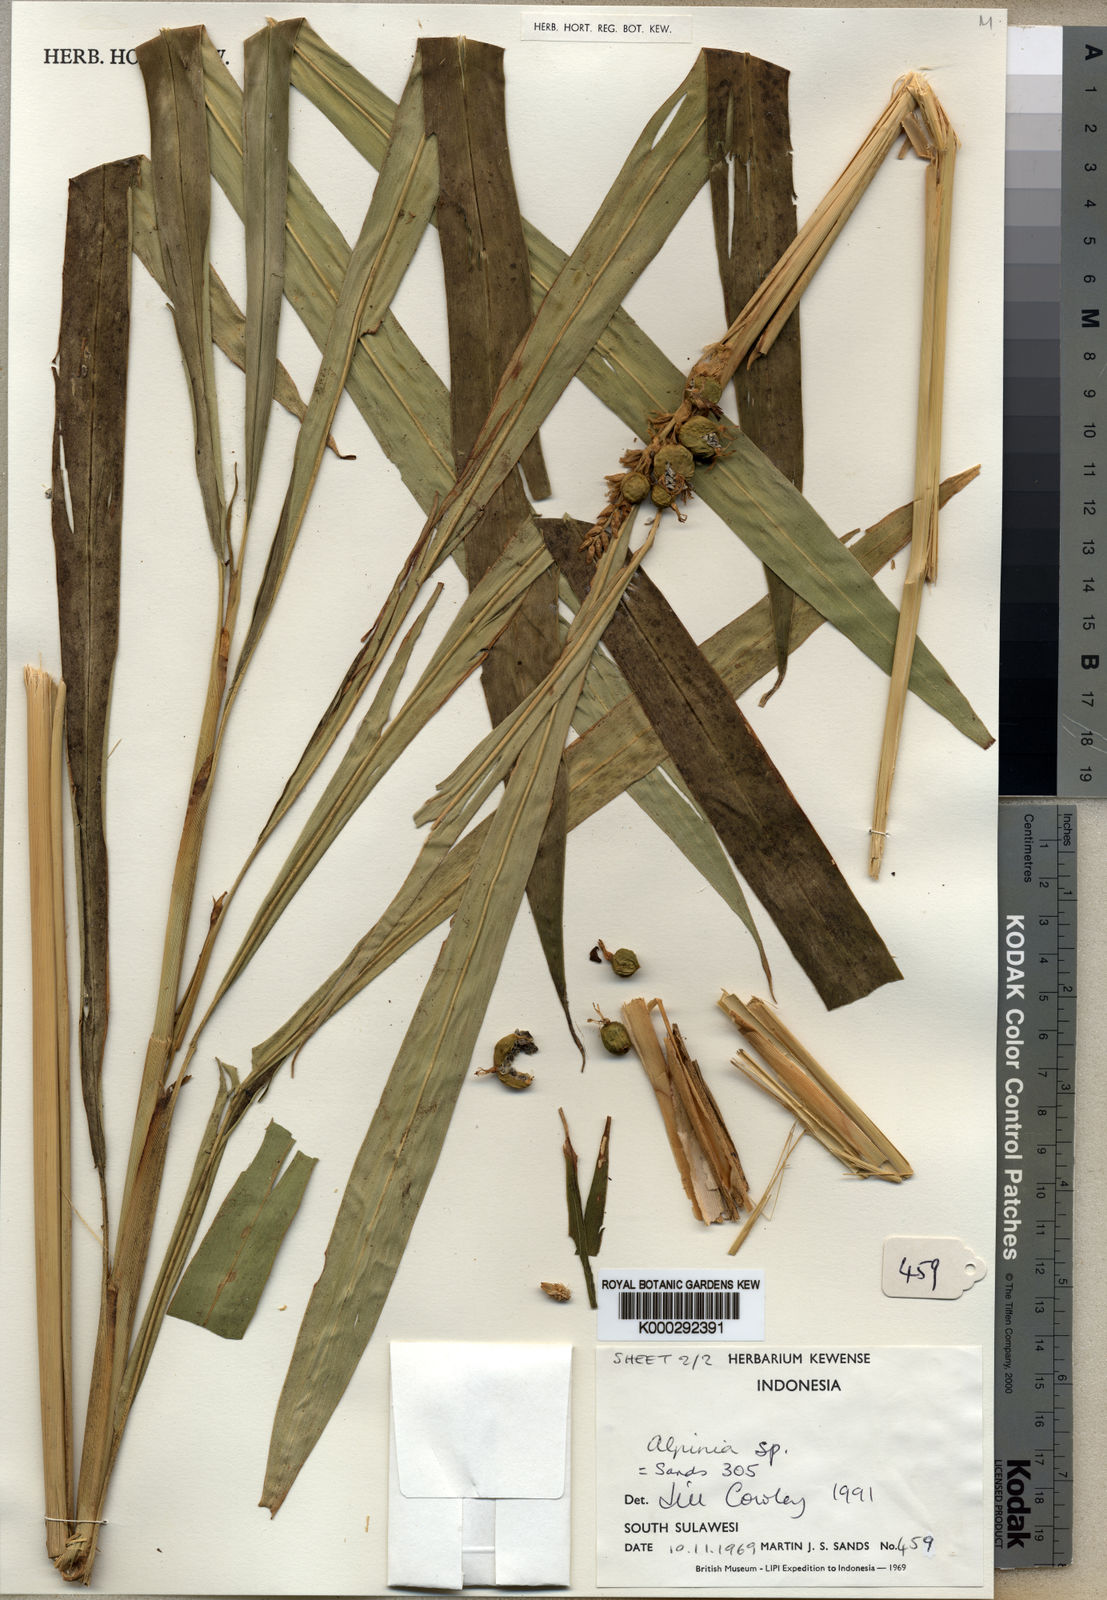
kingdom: Plantae
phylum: Tracheophyta
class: Liliopsida
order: Zingiberales
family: Zingiberaceae
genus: Alpinia
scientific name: Alpinia sandsii
